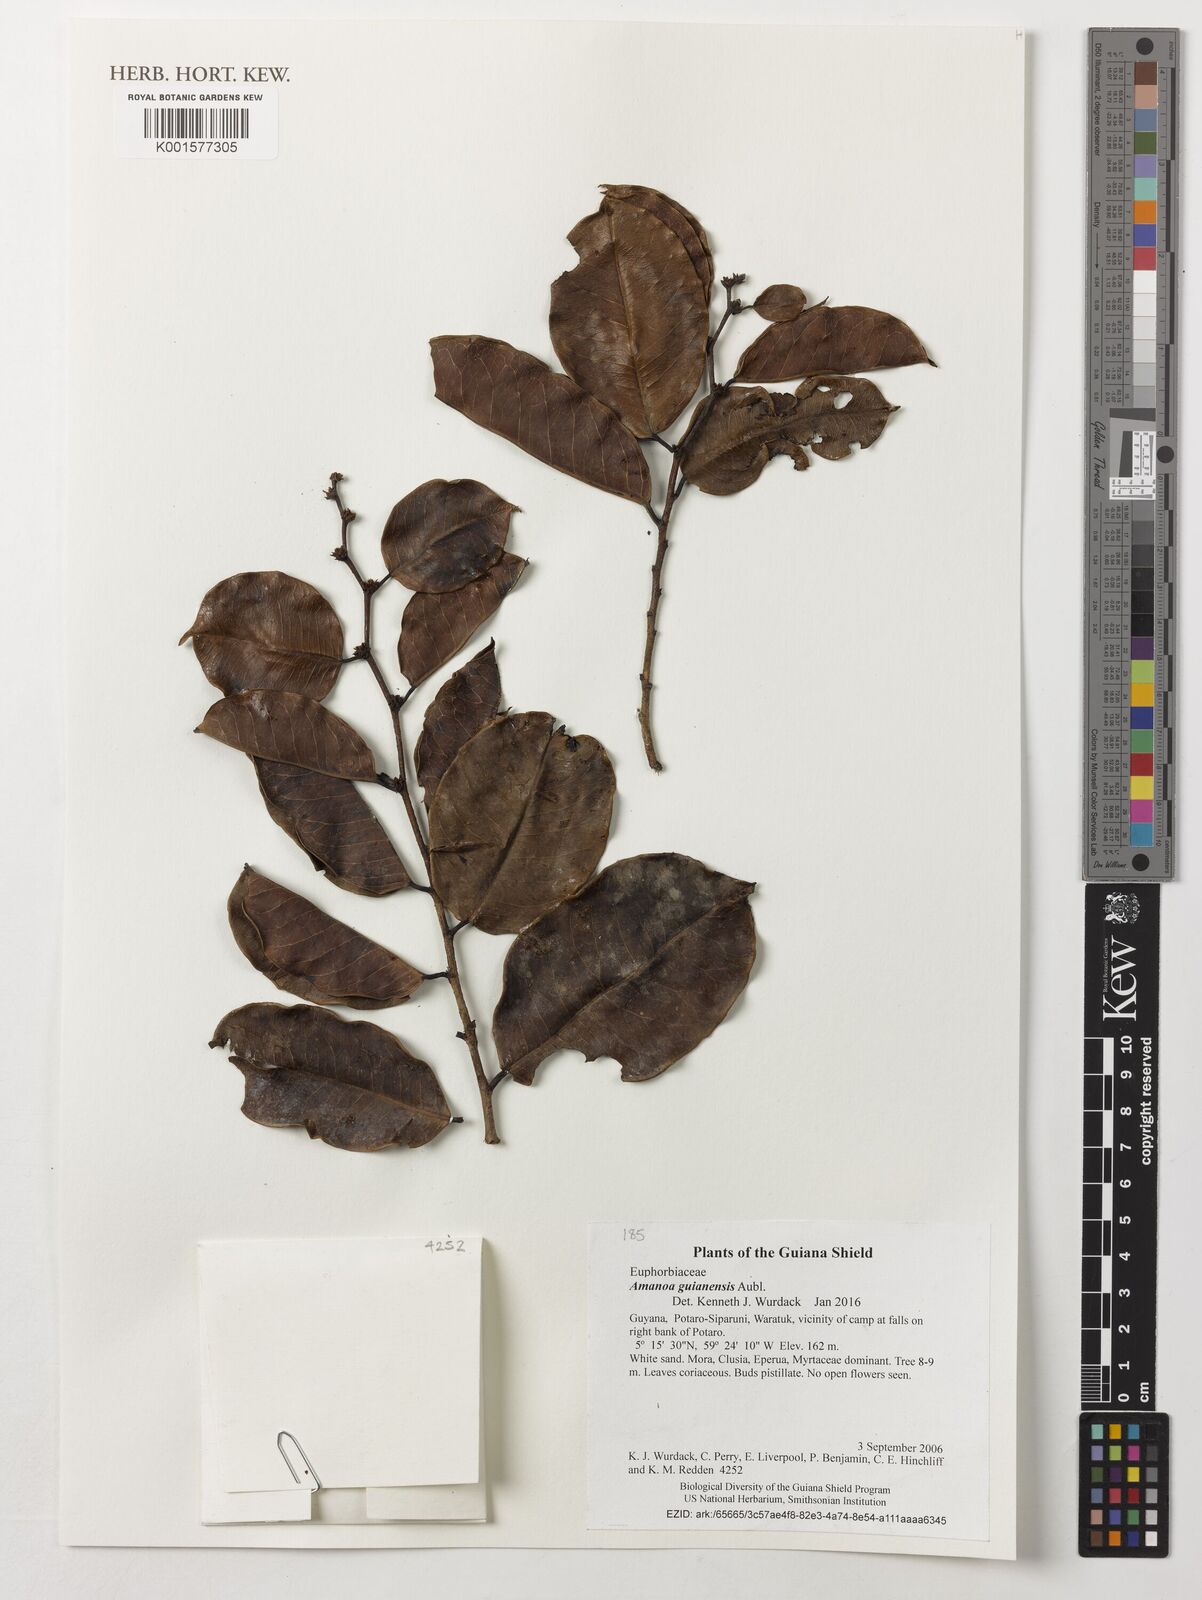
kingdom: Plantae
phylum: Tracheophyta
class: Magnoliopsida
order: Malpighiales
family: Phyllanthaceae
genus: Amanoa
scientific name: Amanoa guianensis
